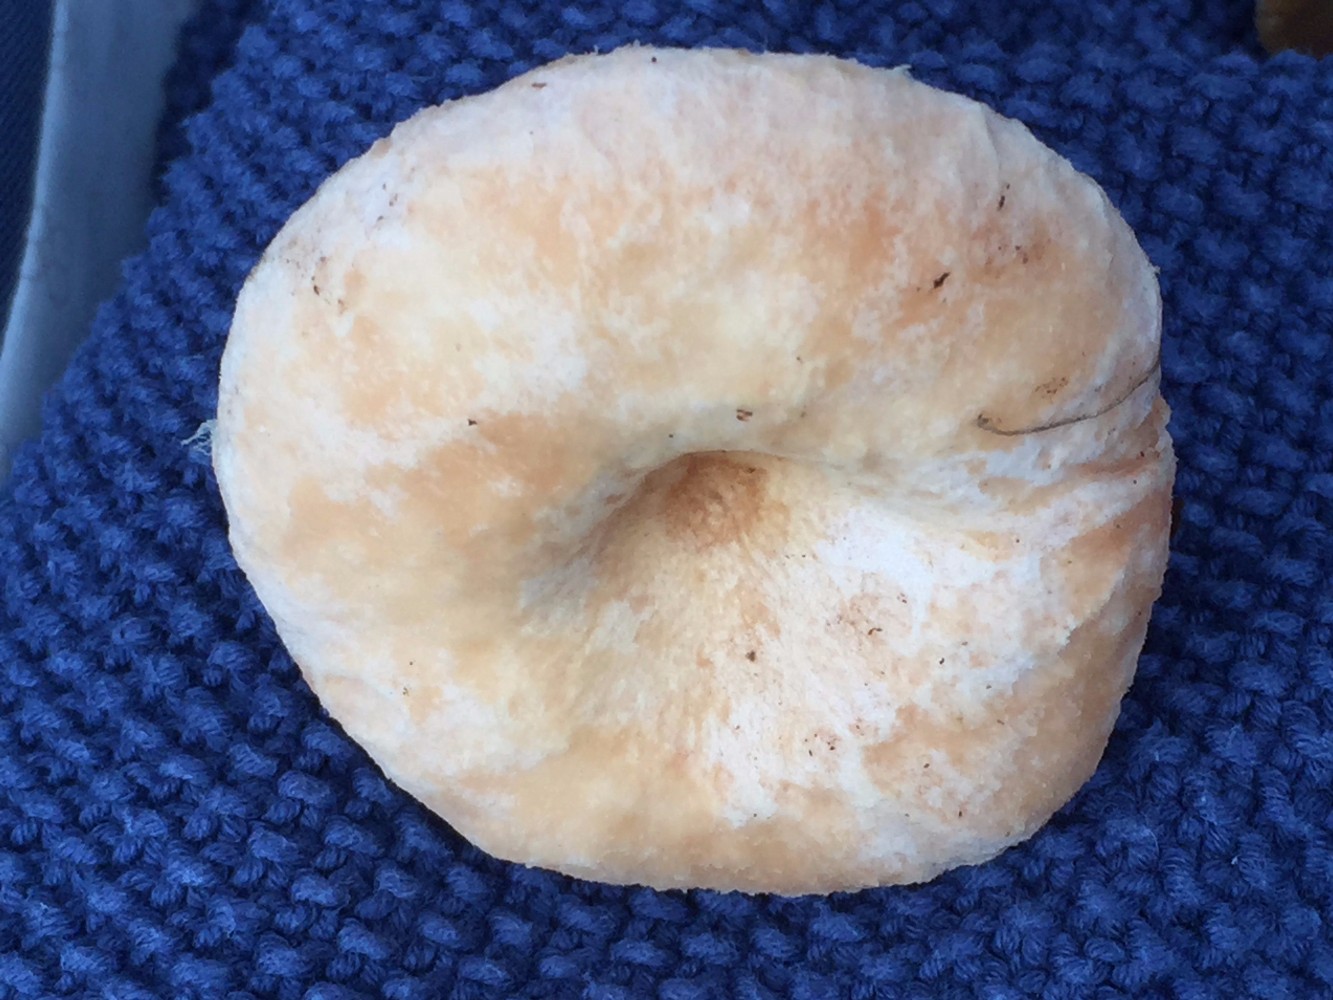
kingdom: Fungi
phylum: Ascomycota
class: Sordariomycetes
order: Hypocreales
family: Hypocreaceae
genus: Hypomyces
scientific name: Hypomyces spadiceus
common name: mælkeskæg-snylteskorpe
